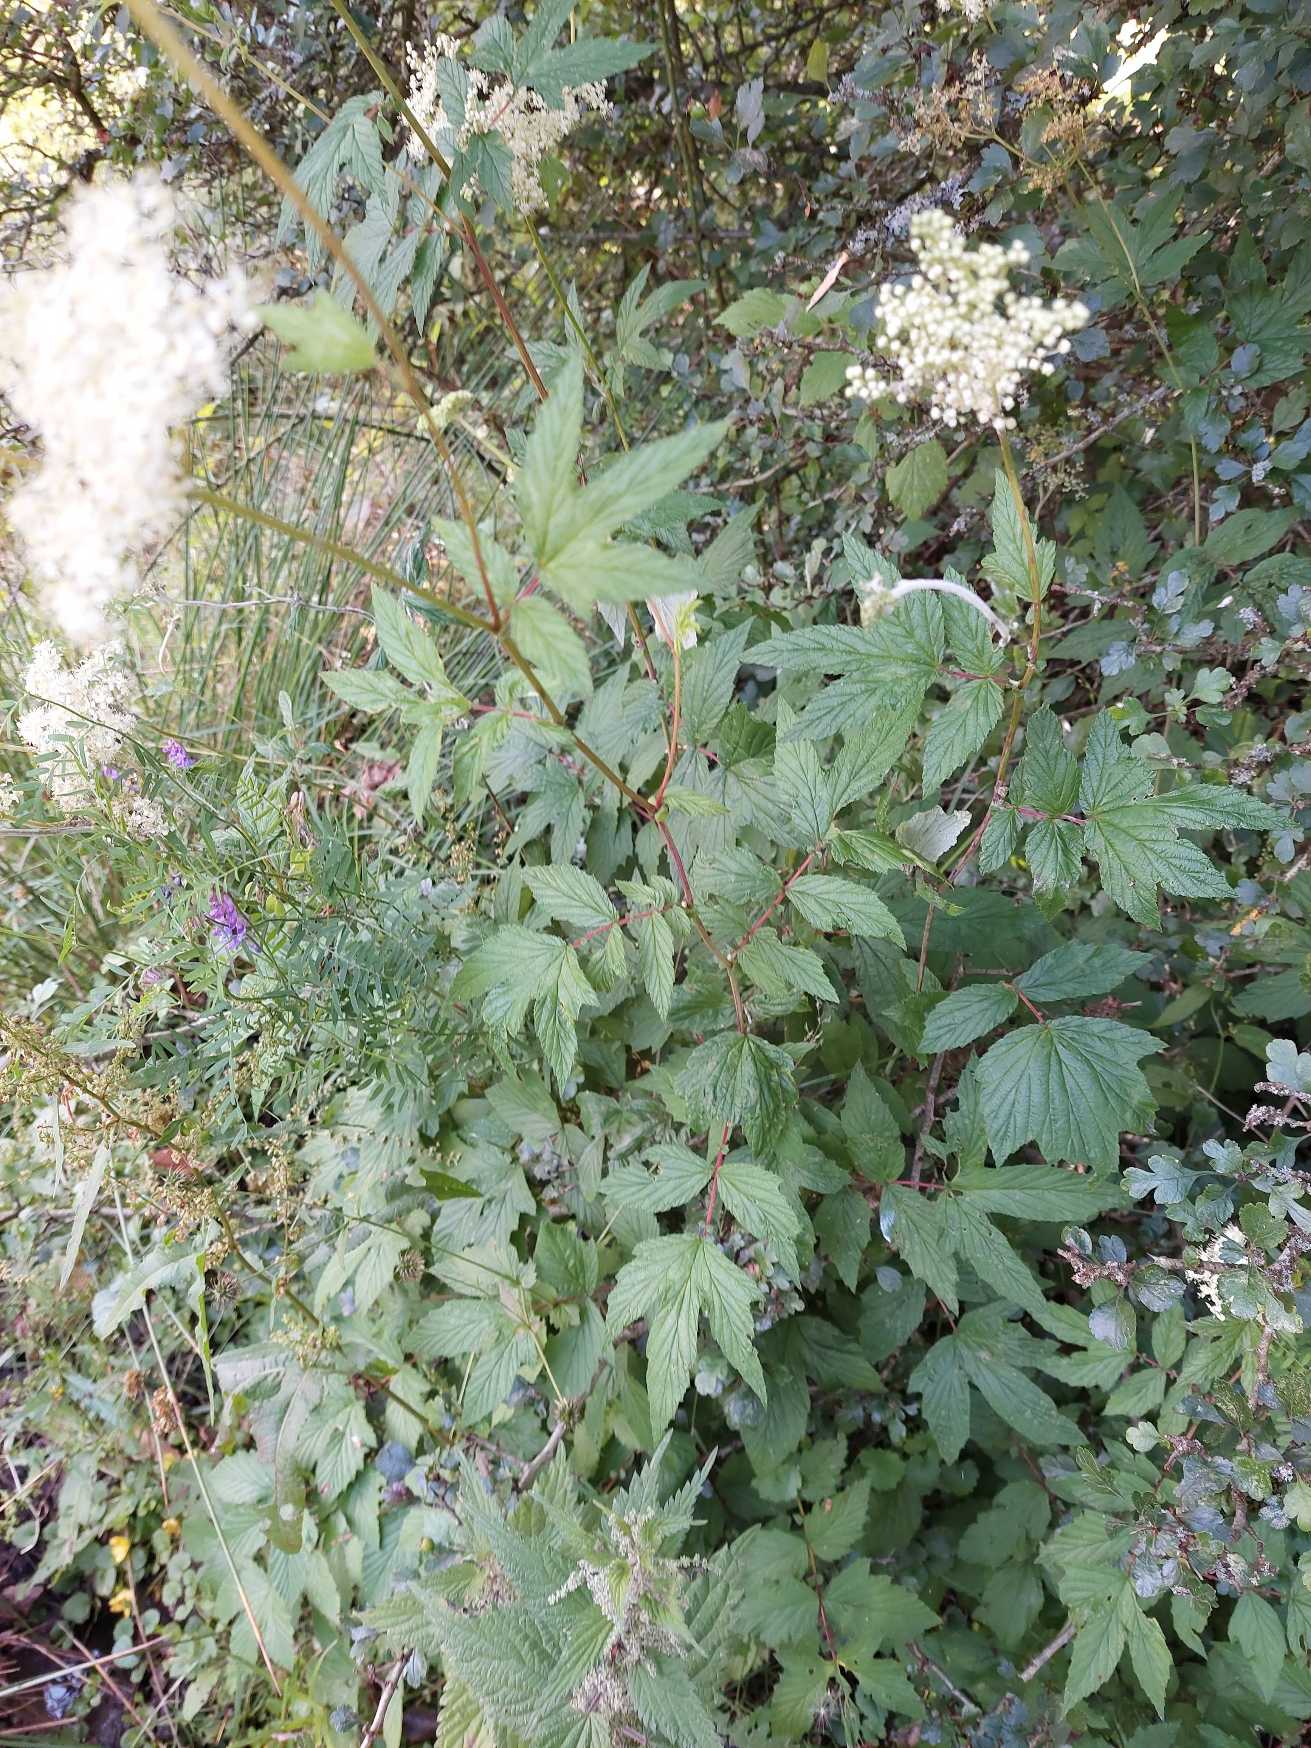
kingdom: Plantae
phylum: Tracheophyta
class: Magnoliopsida
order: Rosales
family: Rosaceae
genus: Filipendula
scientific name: Filipendula ulmaria
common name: Almindelig mjødurt
